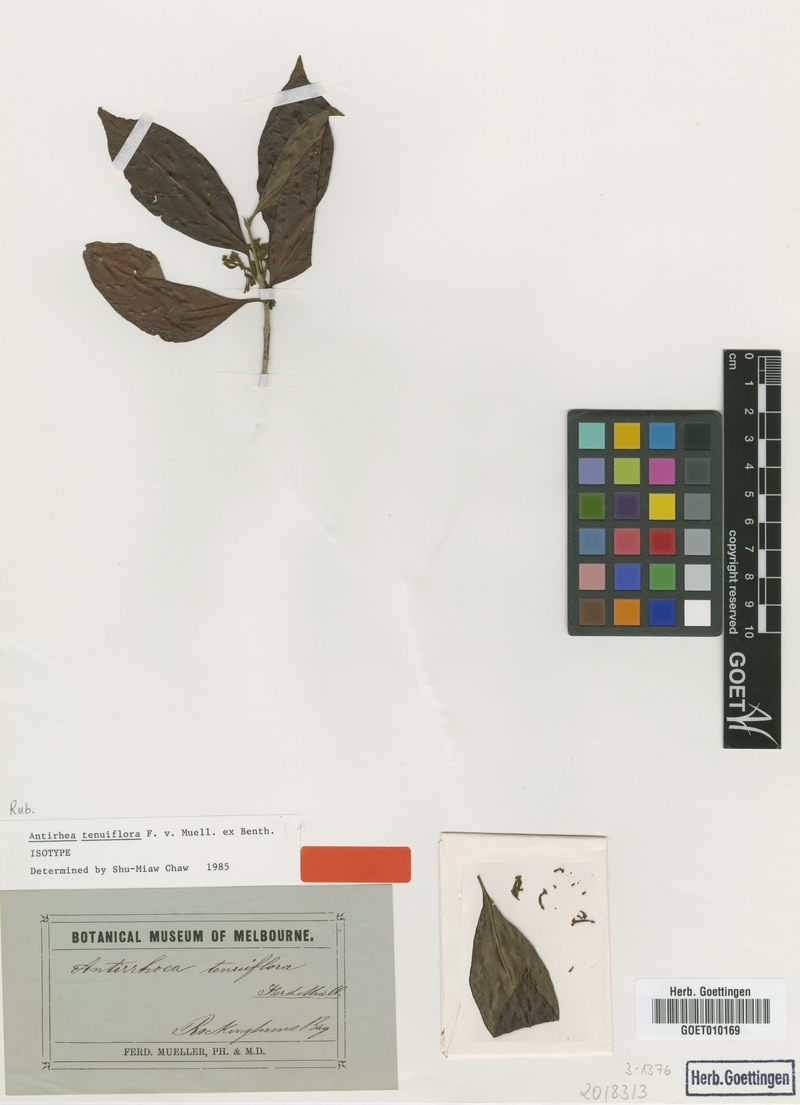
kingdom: Plantae
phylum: Tracheophyta
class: Magnoliopsida
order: Gentianales
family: Rubiaceae
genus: Guettardella
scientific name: Guettardella tenuiflora
